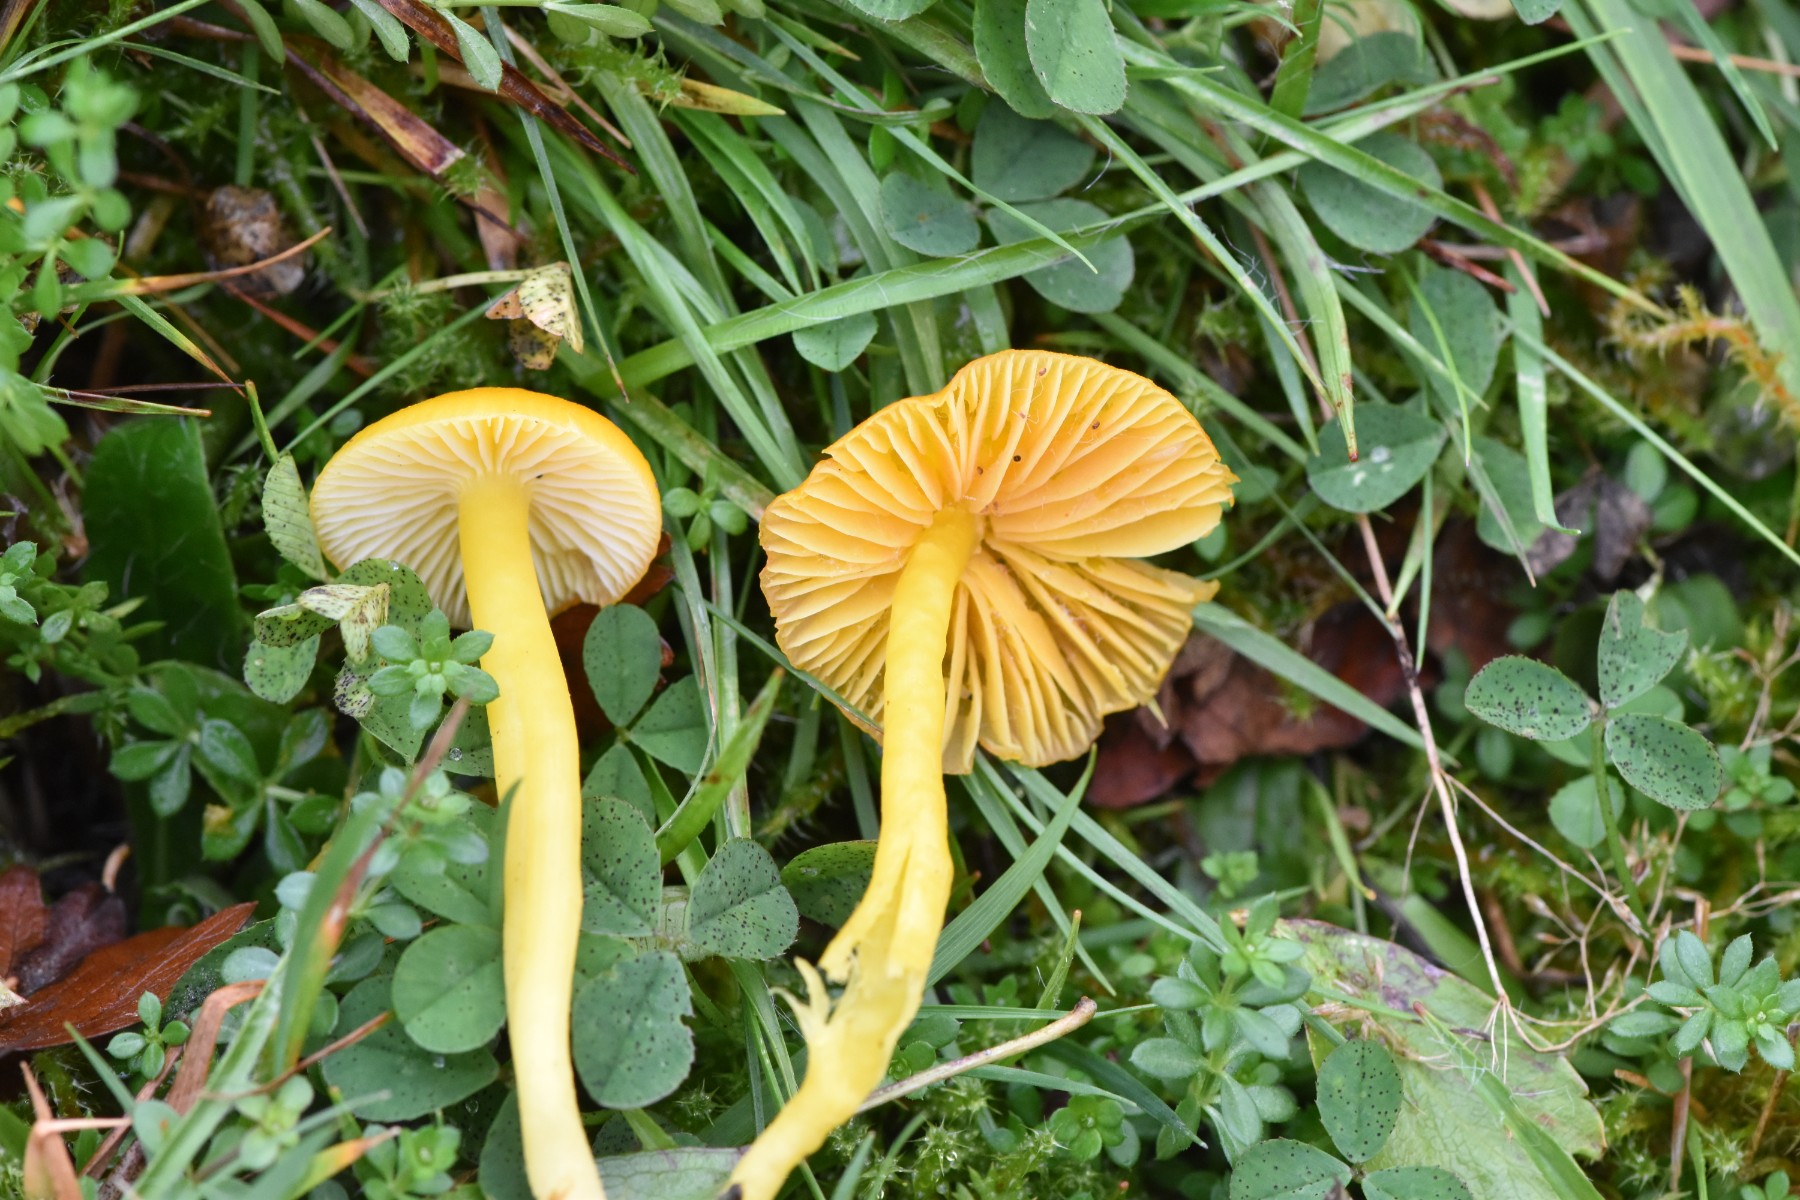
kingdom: Fungi
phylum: Basidiomycota
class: Agaricomycetes
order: Agaricales
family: Hygrophoraceae
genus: Hygrocybe
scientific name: Hygrocybe ceracea
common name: voksgul vokshat
